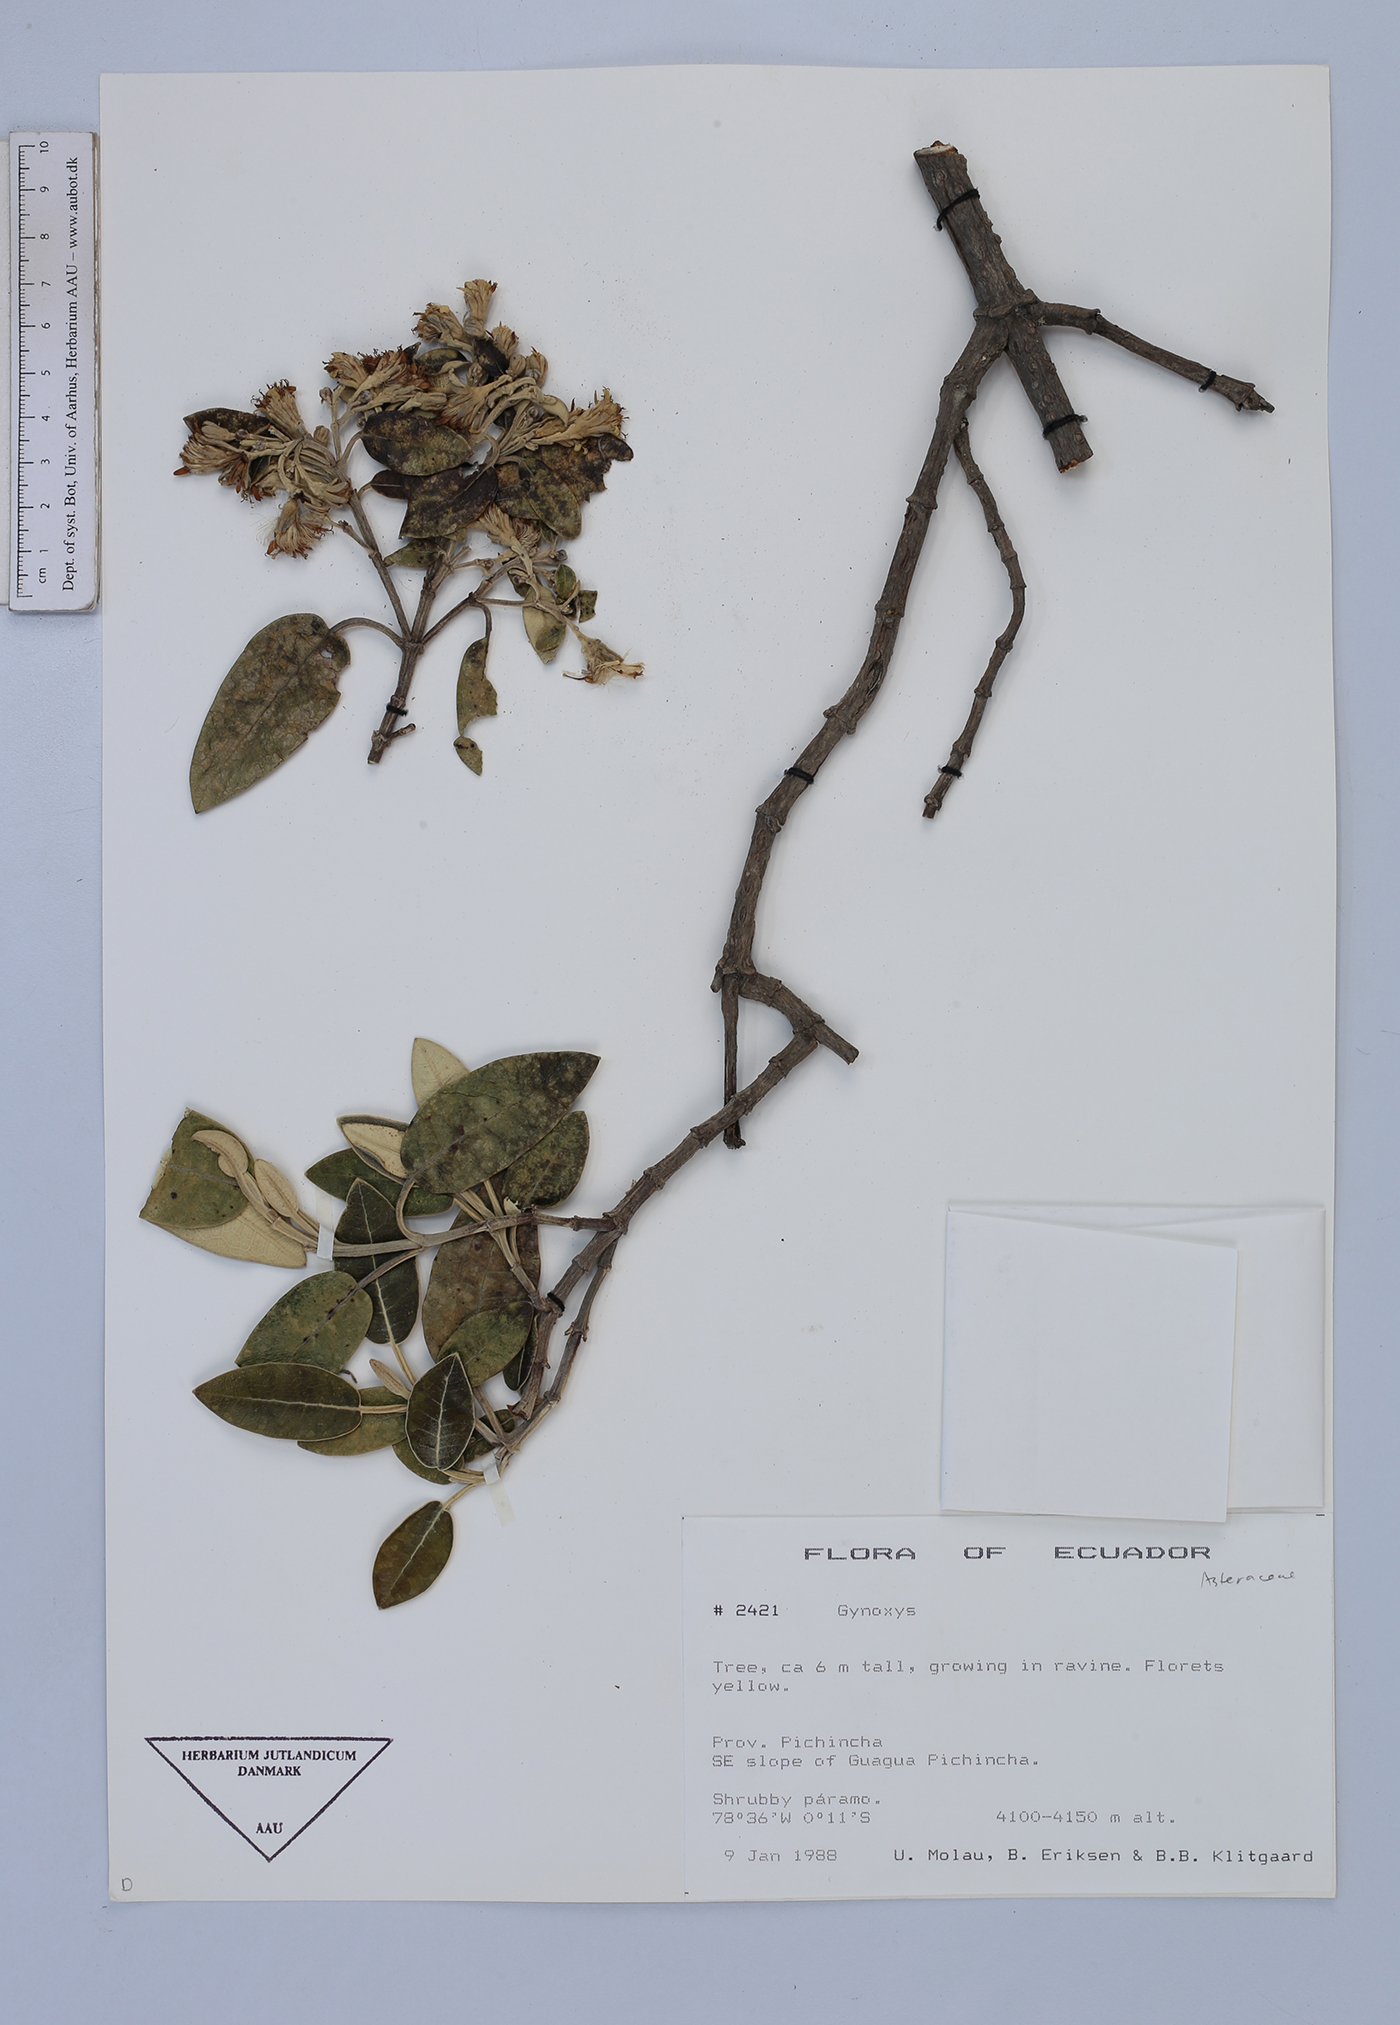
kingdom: Plantae
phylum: Tracheophyta
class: Magnoliopsida
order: Asterales
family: Asteraceae
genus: Gynoxys
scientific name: Gynoxys sodiroi
